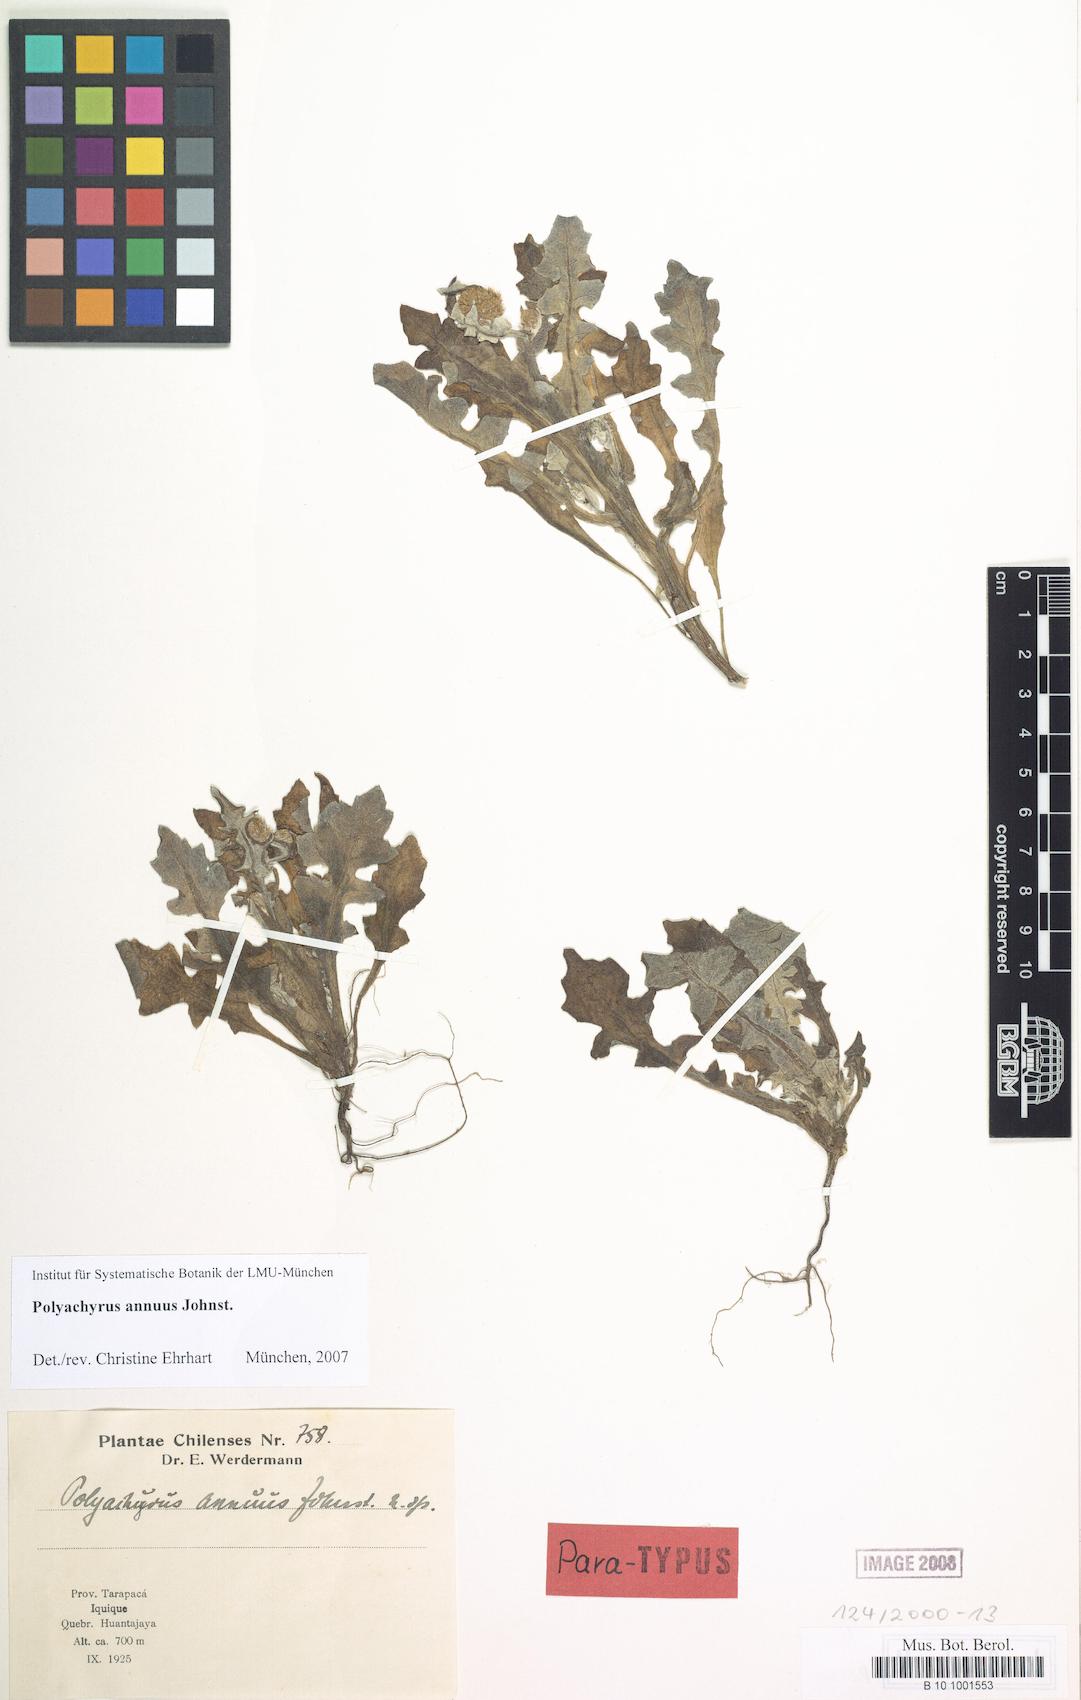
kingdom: Plantae
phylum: Tracheophyta
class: Magnoliopsida
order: Asterales
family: Asteraceae
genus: Polyachyrus
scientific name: Polyachyrus annuus
